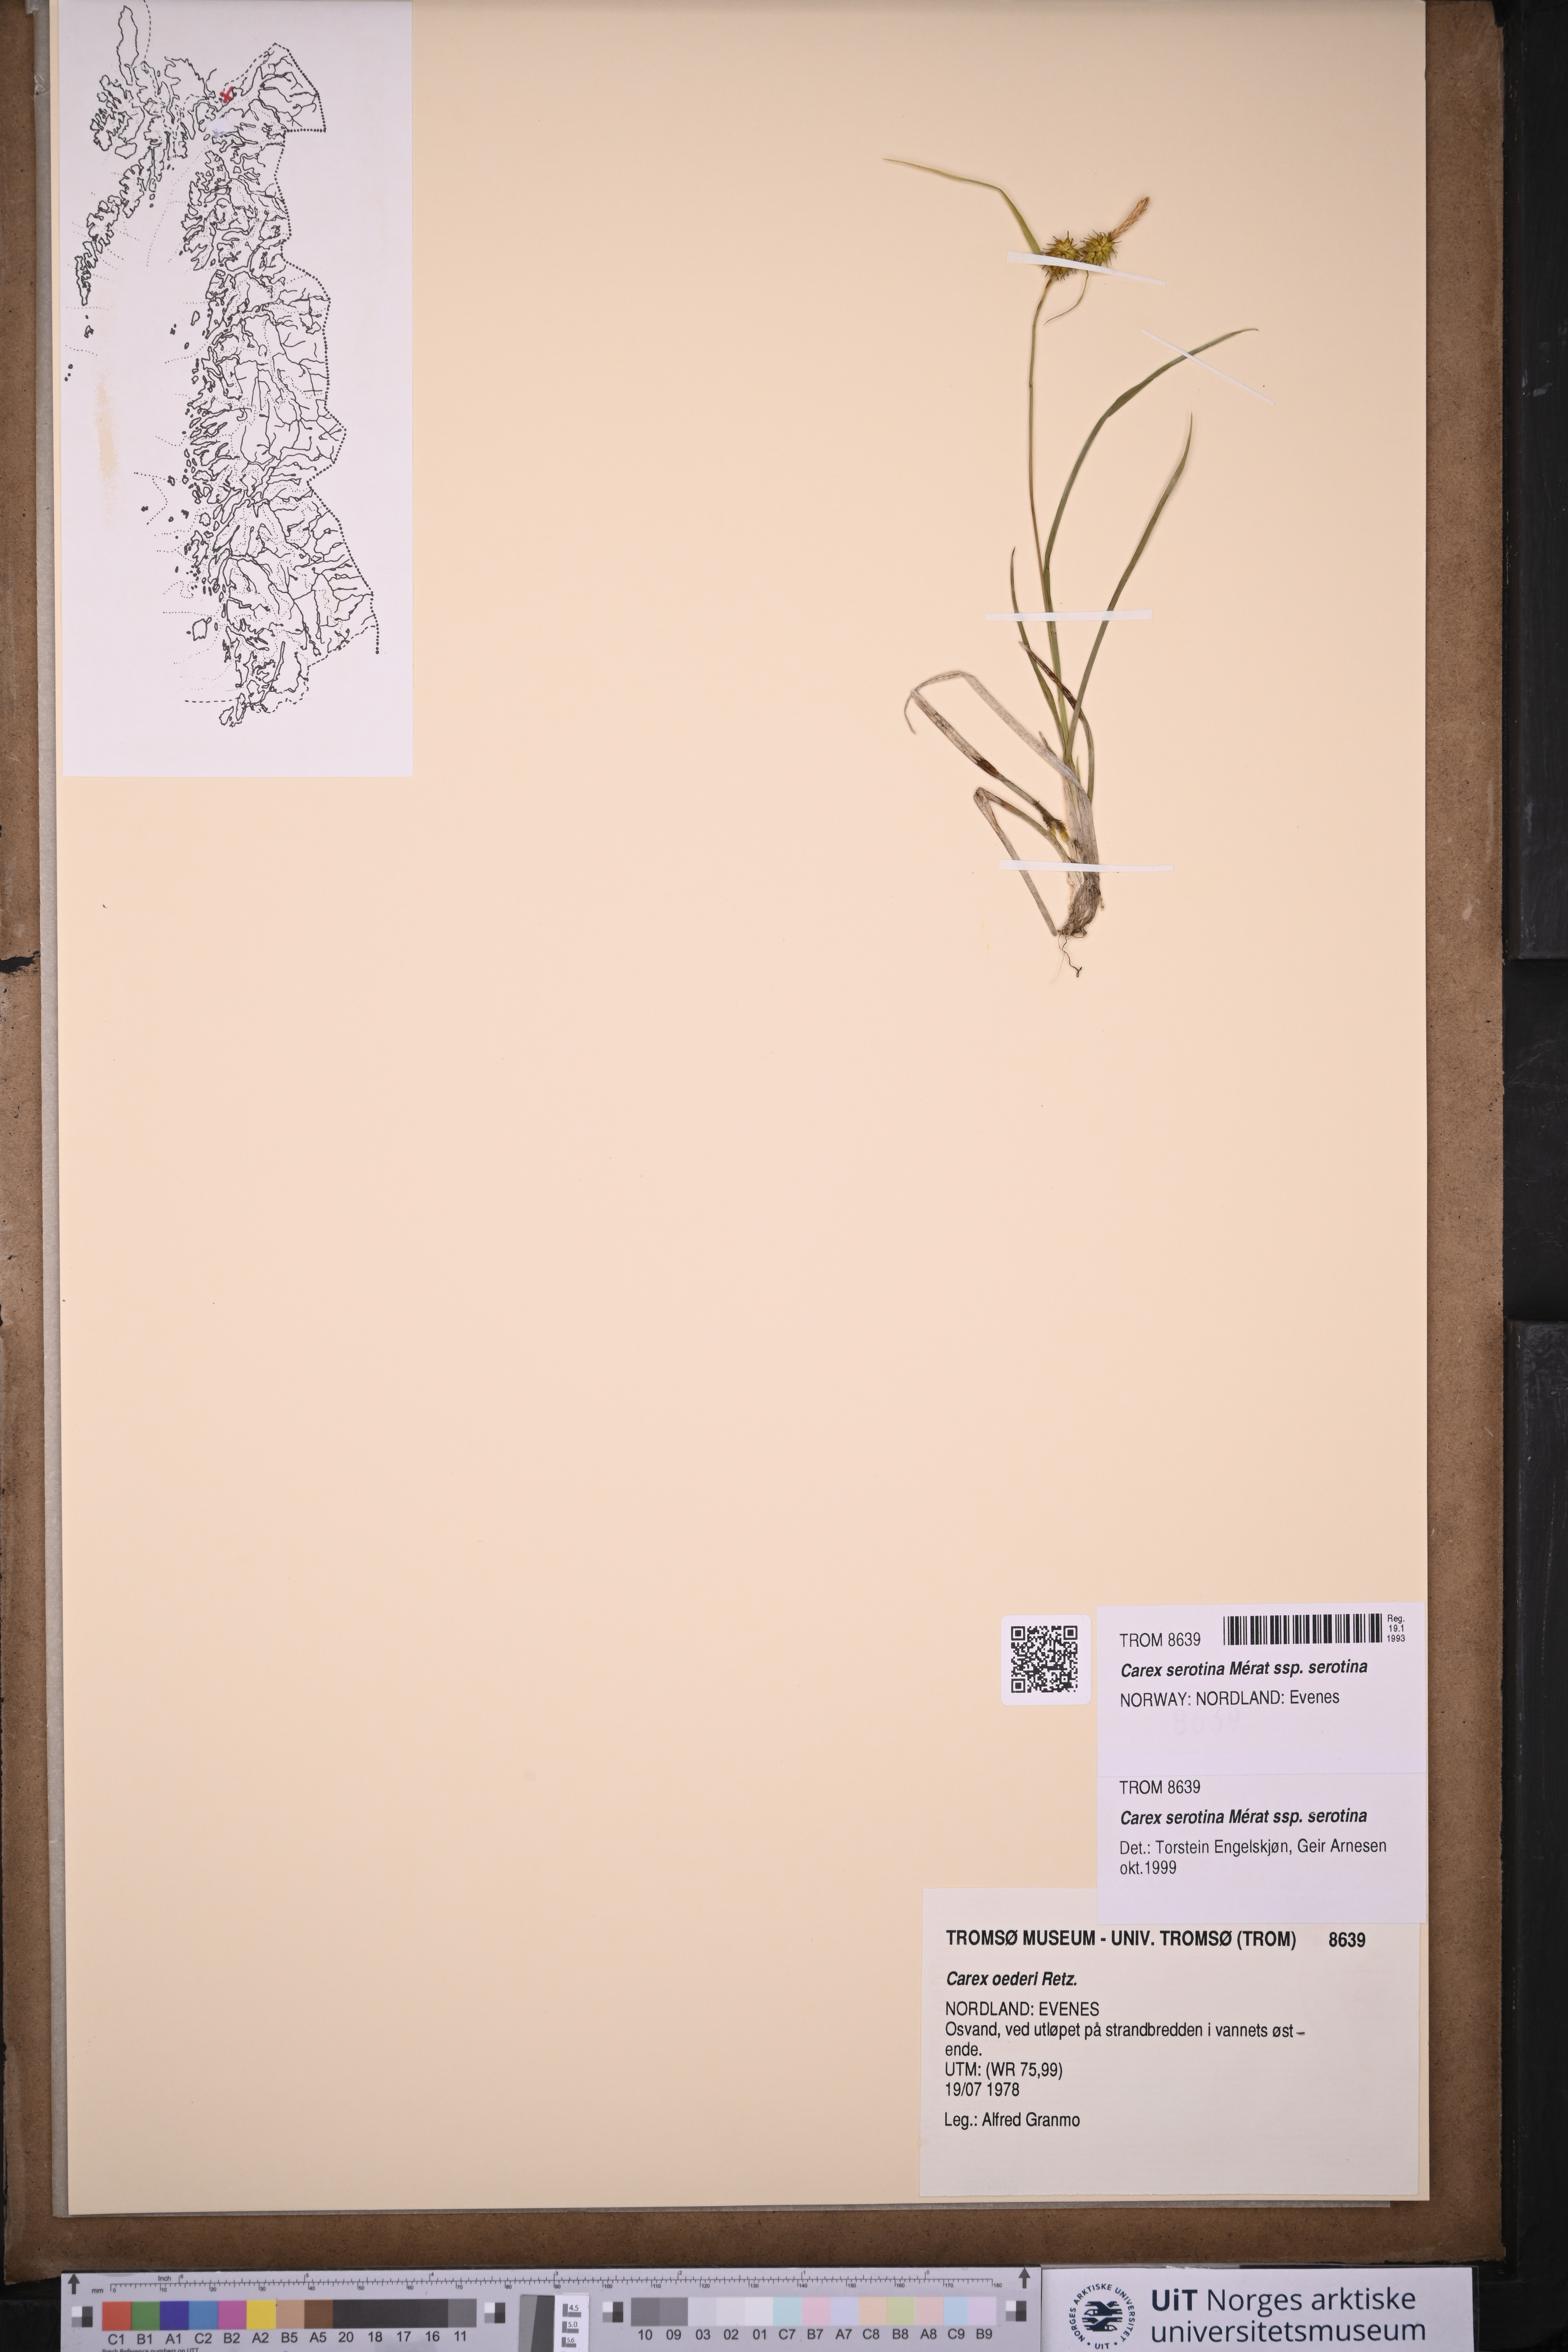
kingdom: Plantae
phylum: Tracheophyta
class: Liliopsida
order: Poales
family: Cyperaceae
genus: Carex
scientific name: Carex oederi
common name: Common & small-fruited yellow-sedge
